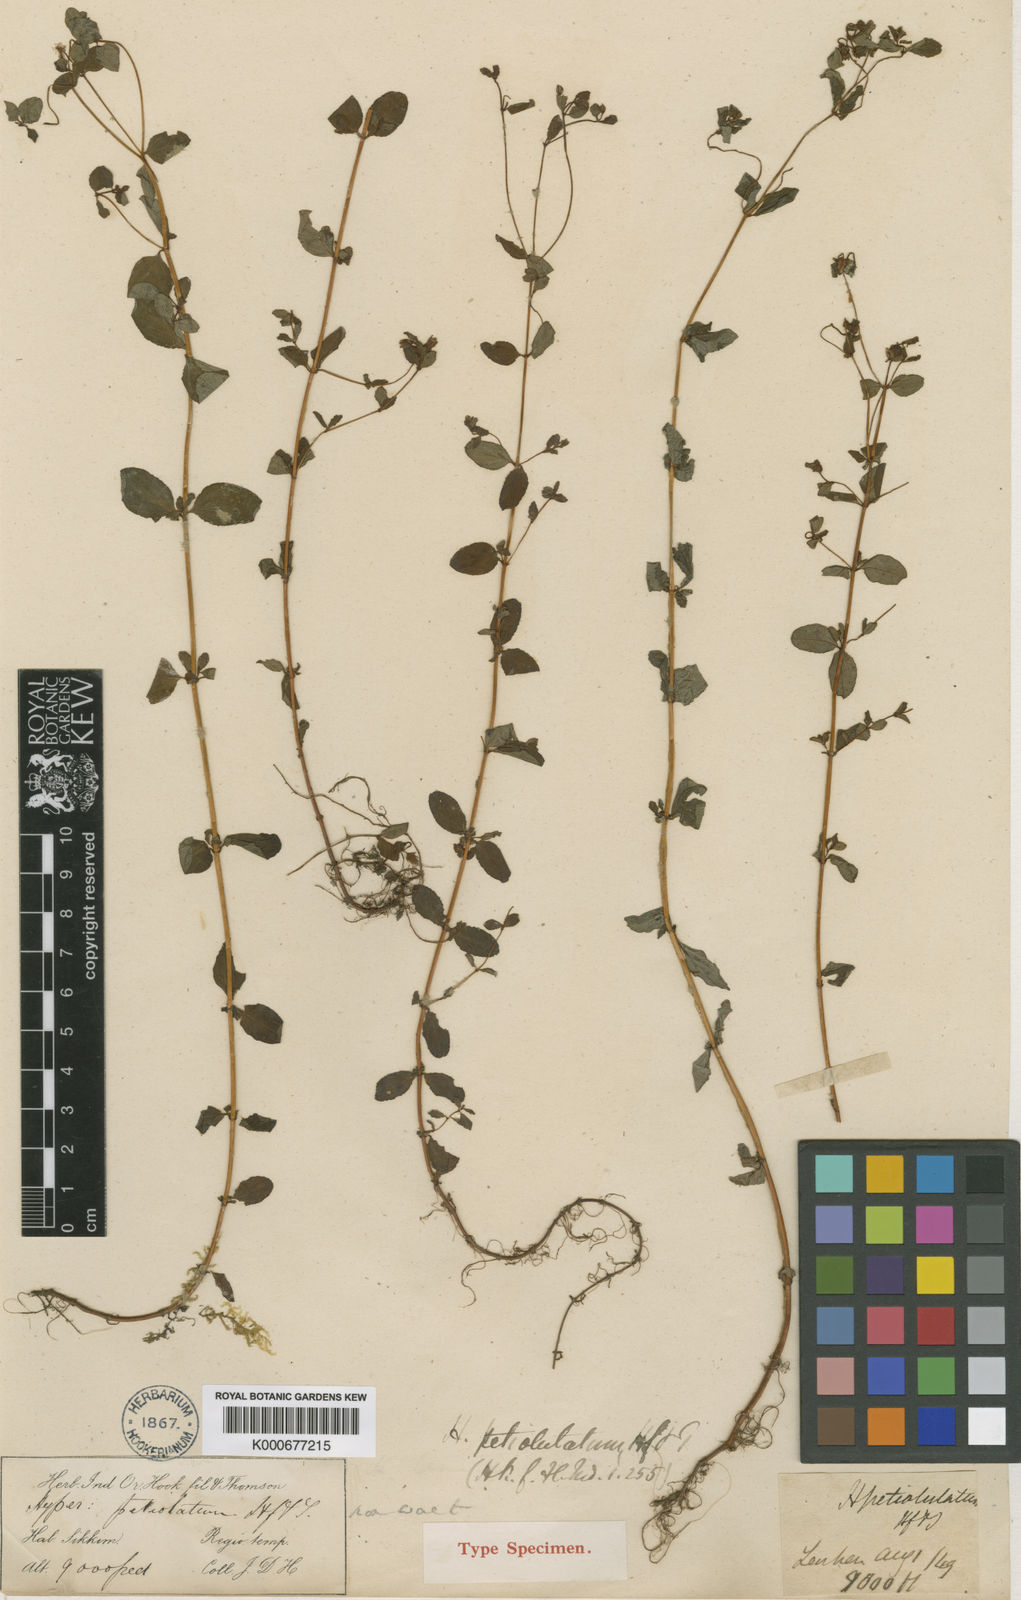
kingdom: Plantae
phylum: Tracheophyta
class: Magnoliopsida
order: Malpighiales
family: Hypericaceae
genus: Hypericum
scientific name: Hypericum petiolulatum
